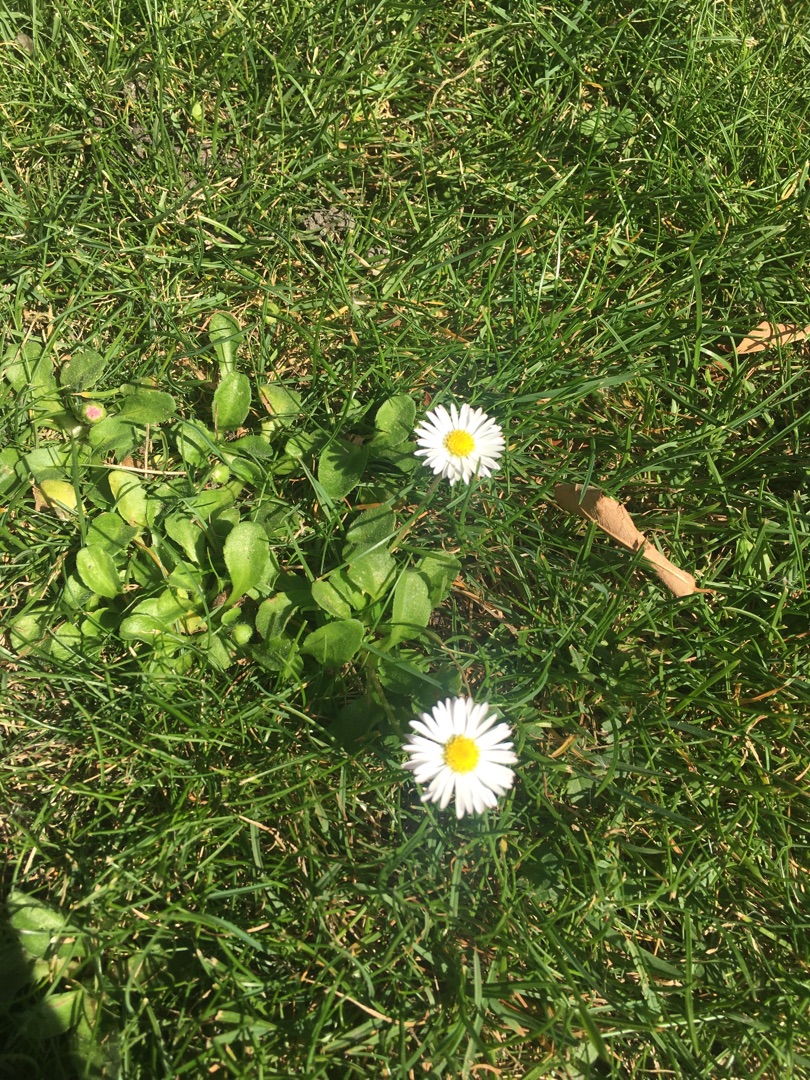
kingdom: Plantae
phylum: Tracheophyta
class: Magnoliopsida
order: Asterales
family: Asteraceae
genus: Bellis
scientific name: Bellis perennis
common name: Tusindfryd
